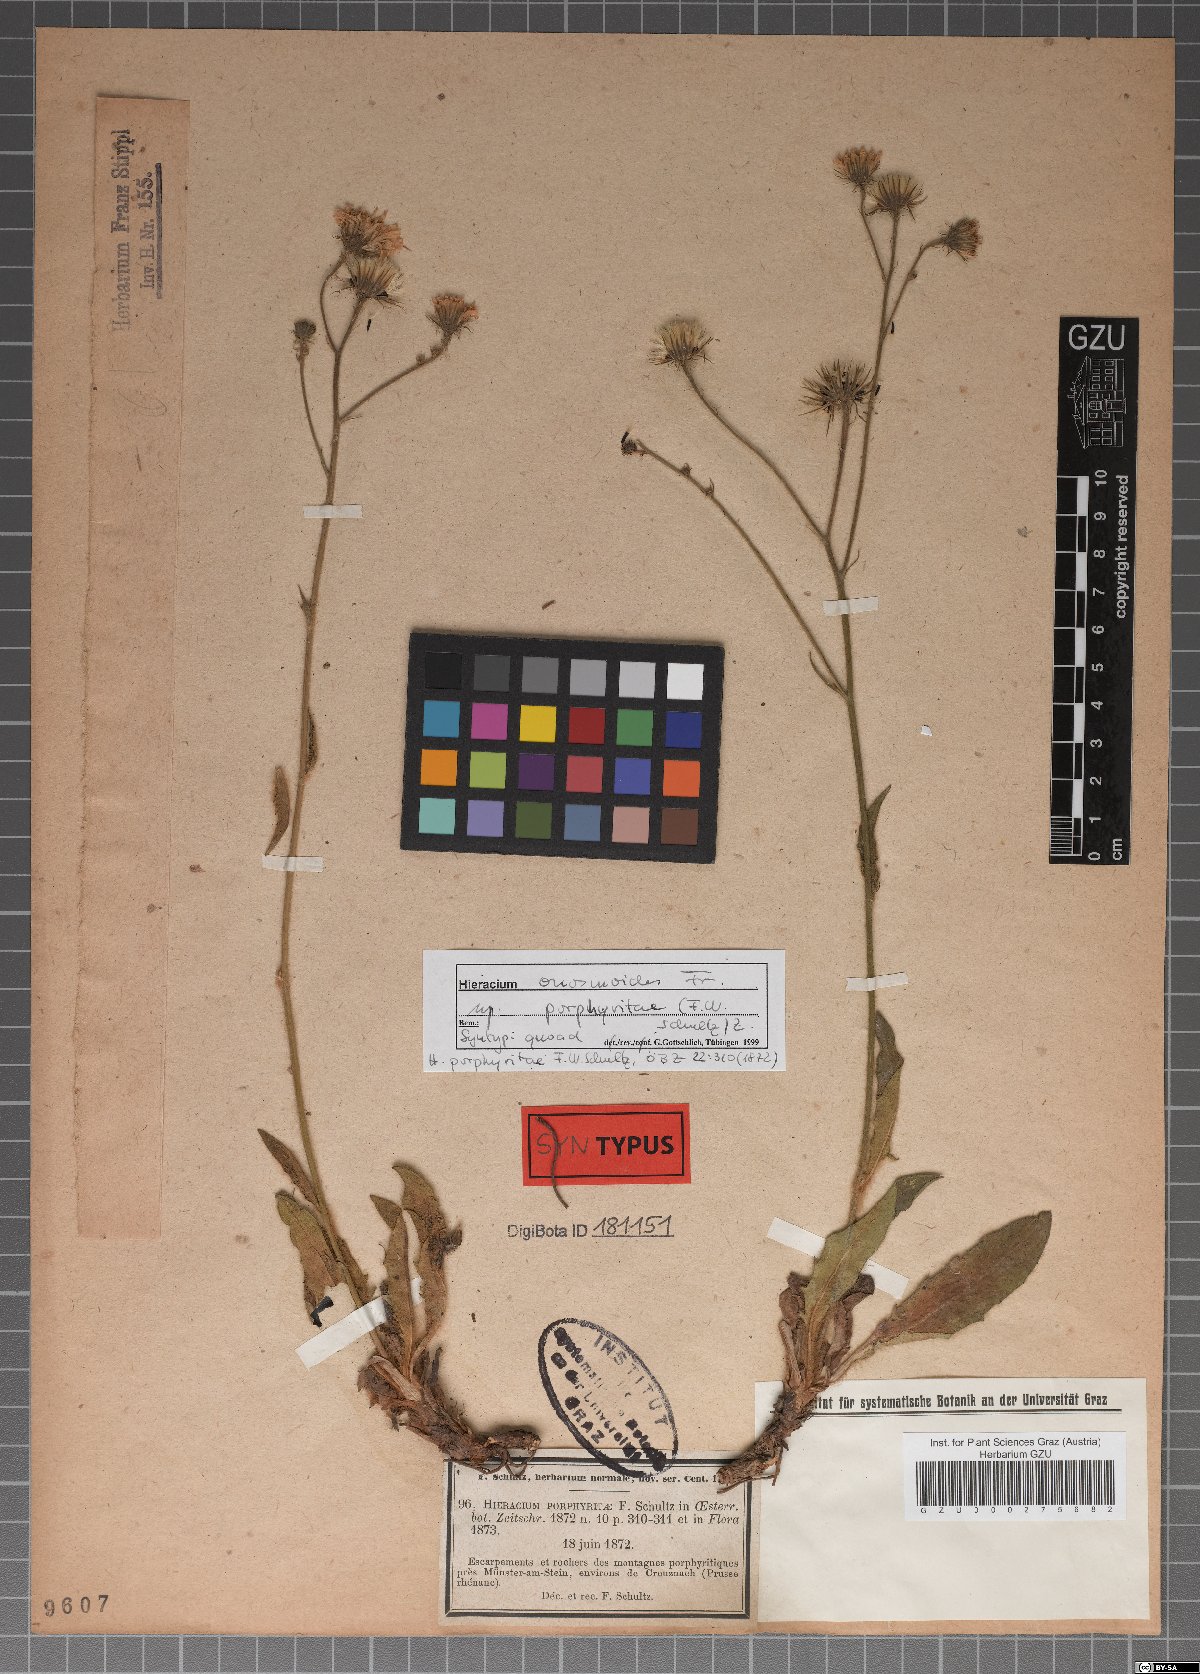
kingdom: Plantae
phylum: Tracheophyta
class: Magnoliopsida
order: Asterales
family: Asteraceae
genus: Hieracium
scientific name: Hieracium onosmoides
